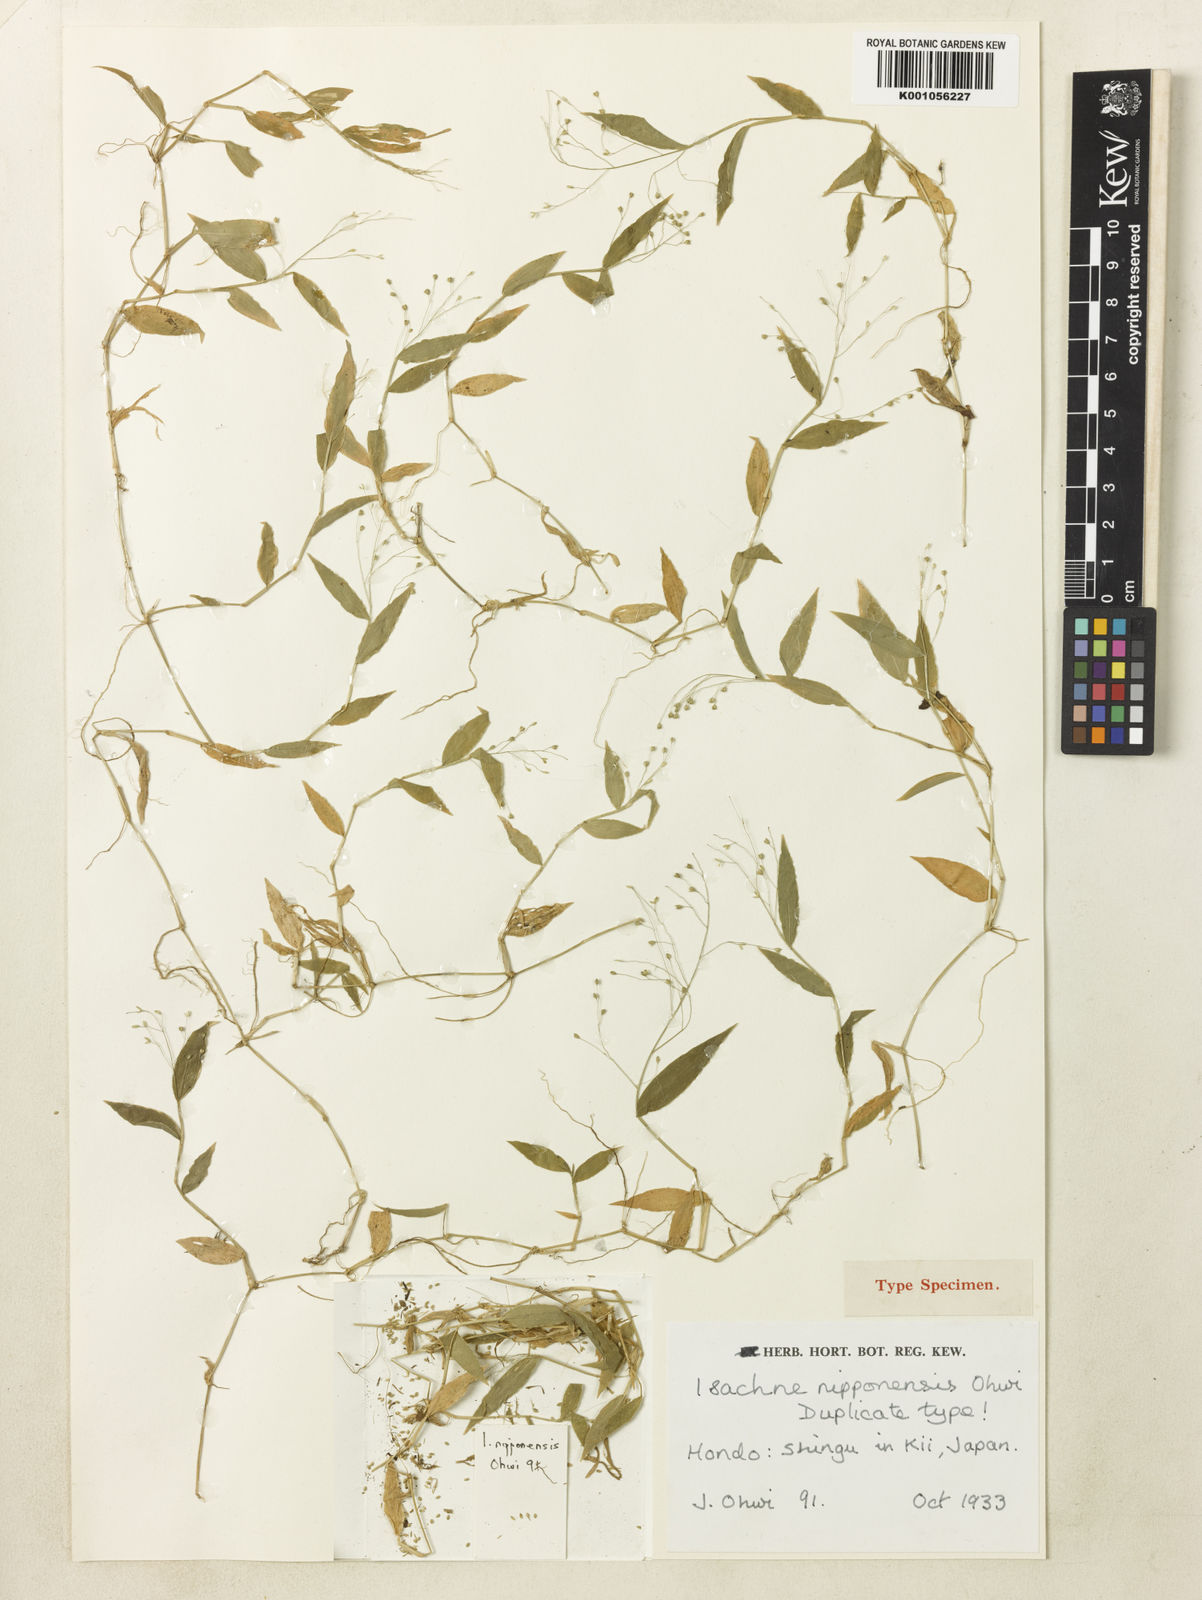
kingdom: Plantae
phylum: Tracheophyta
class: Liliopsida
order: Poales
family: Poaceae
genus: Isachne
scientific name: Isachne nipponensis
